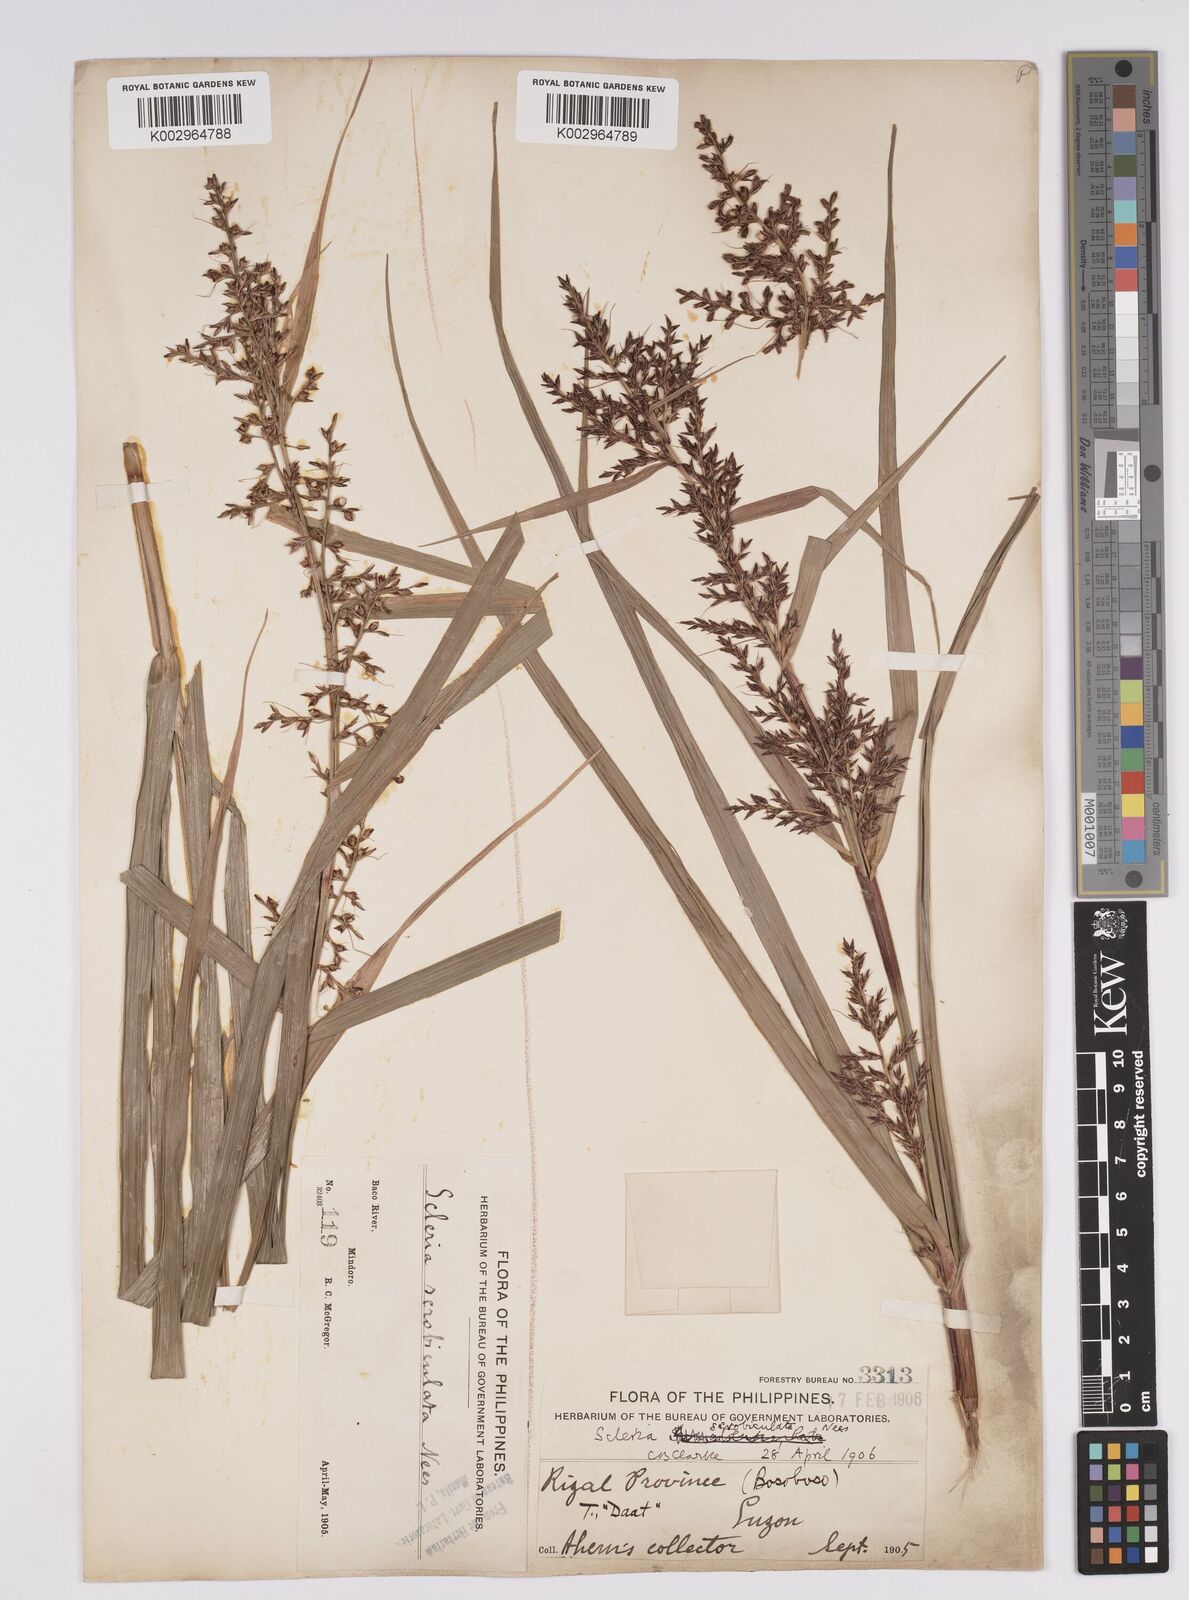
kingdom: Plantae
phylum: Tracheophyta
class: Liliopsida
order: Poales
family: Cyperaceae
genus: Scleria
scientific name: Scleria scrobiculata
